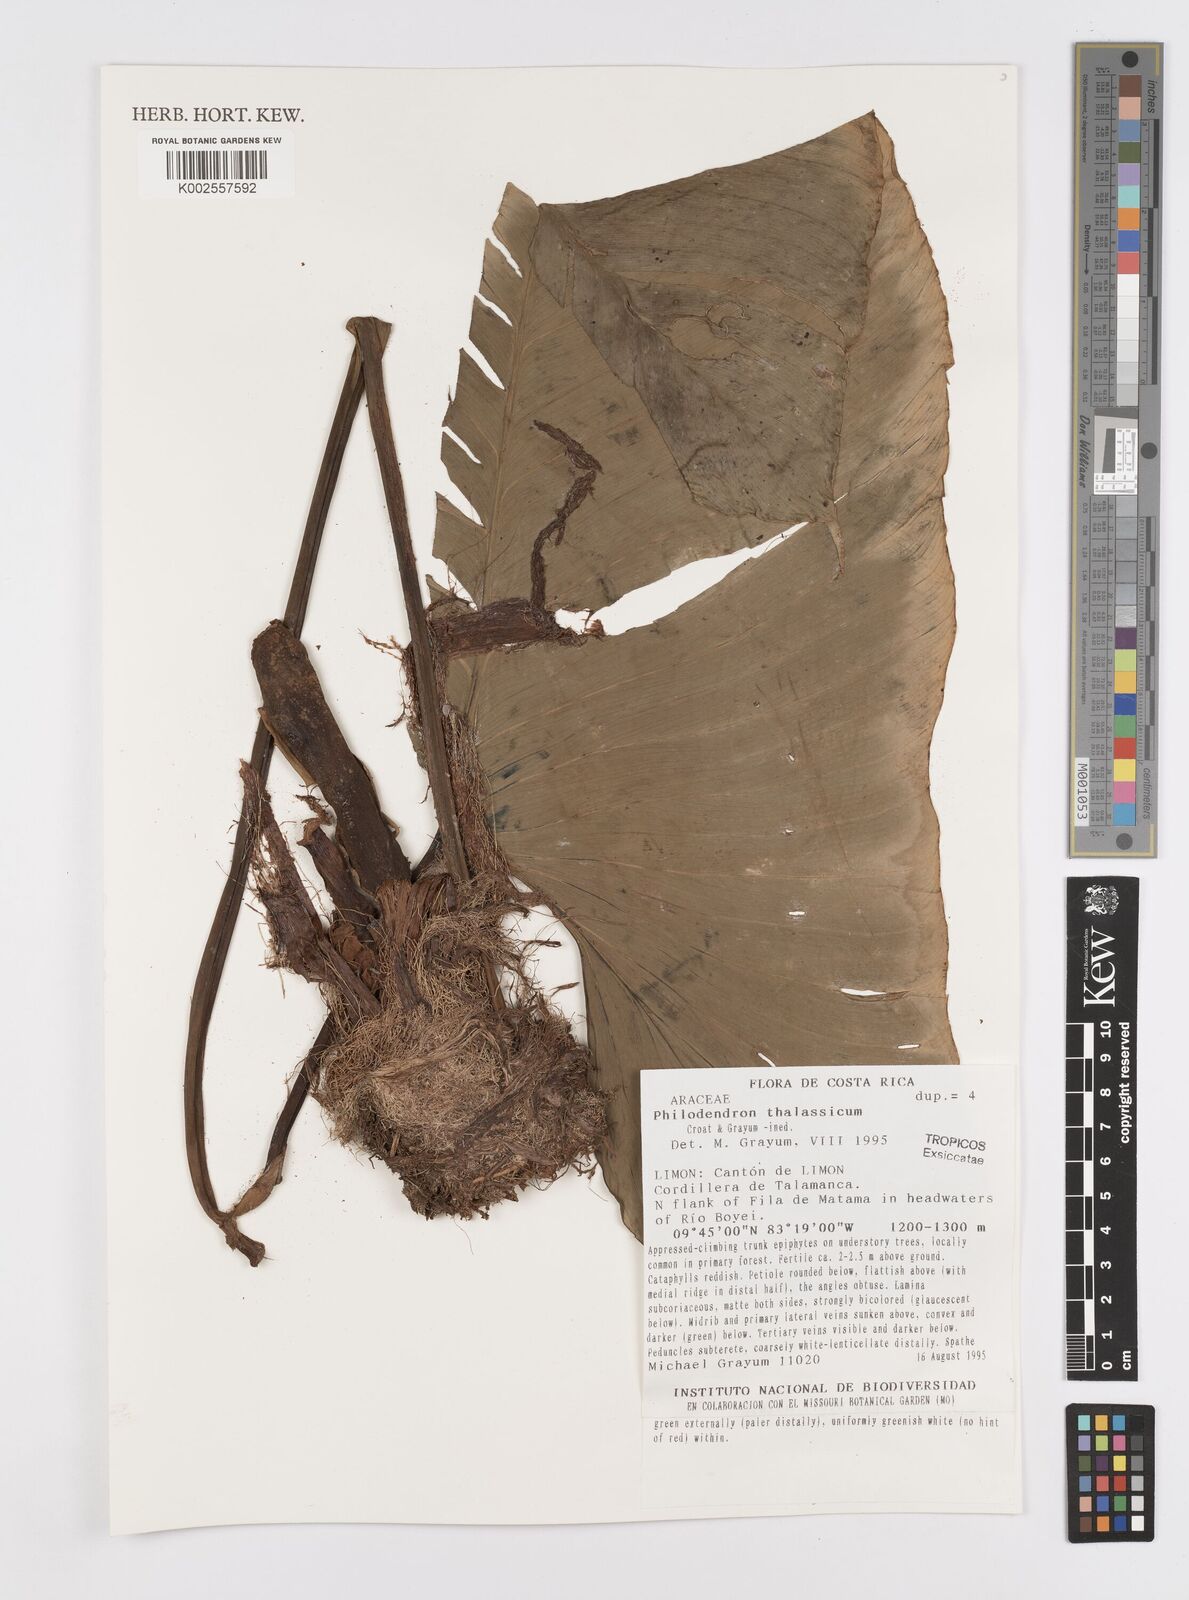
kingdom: Plantae
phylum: Tracheophyta
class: Liliopsida
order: Alismatales
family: Araceae
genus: Philodendron
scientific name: Philodendron thalassicum
